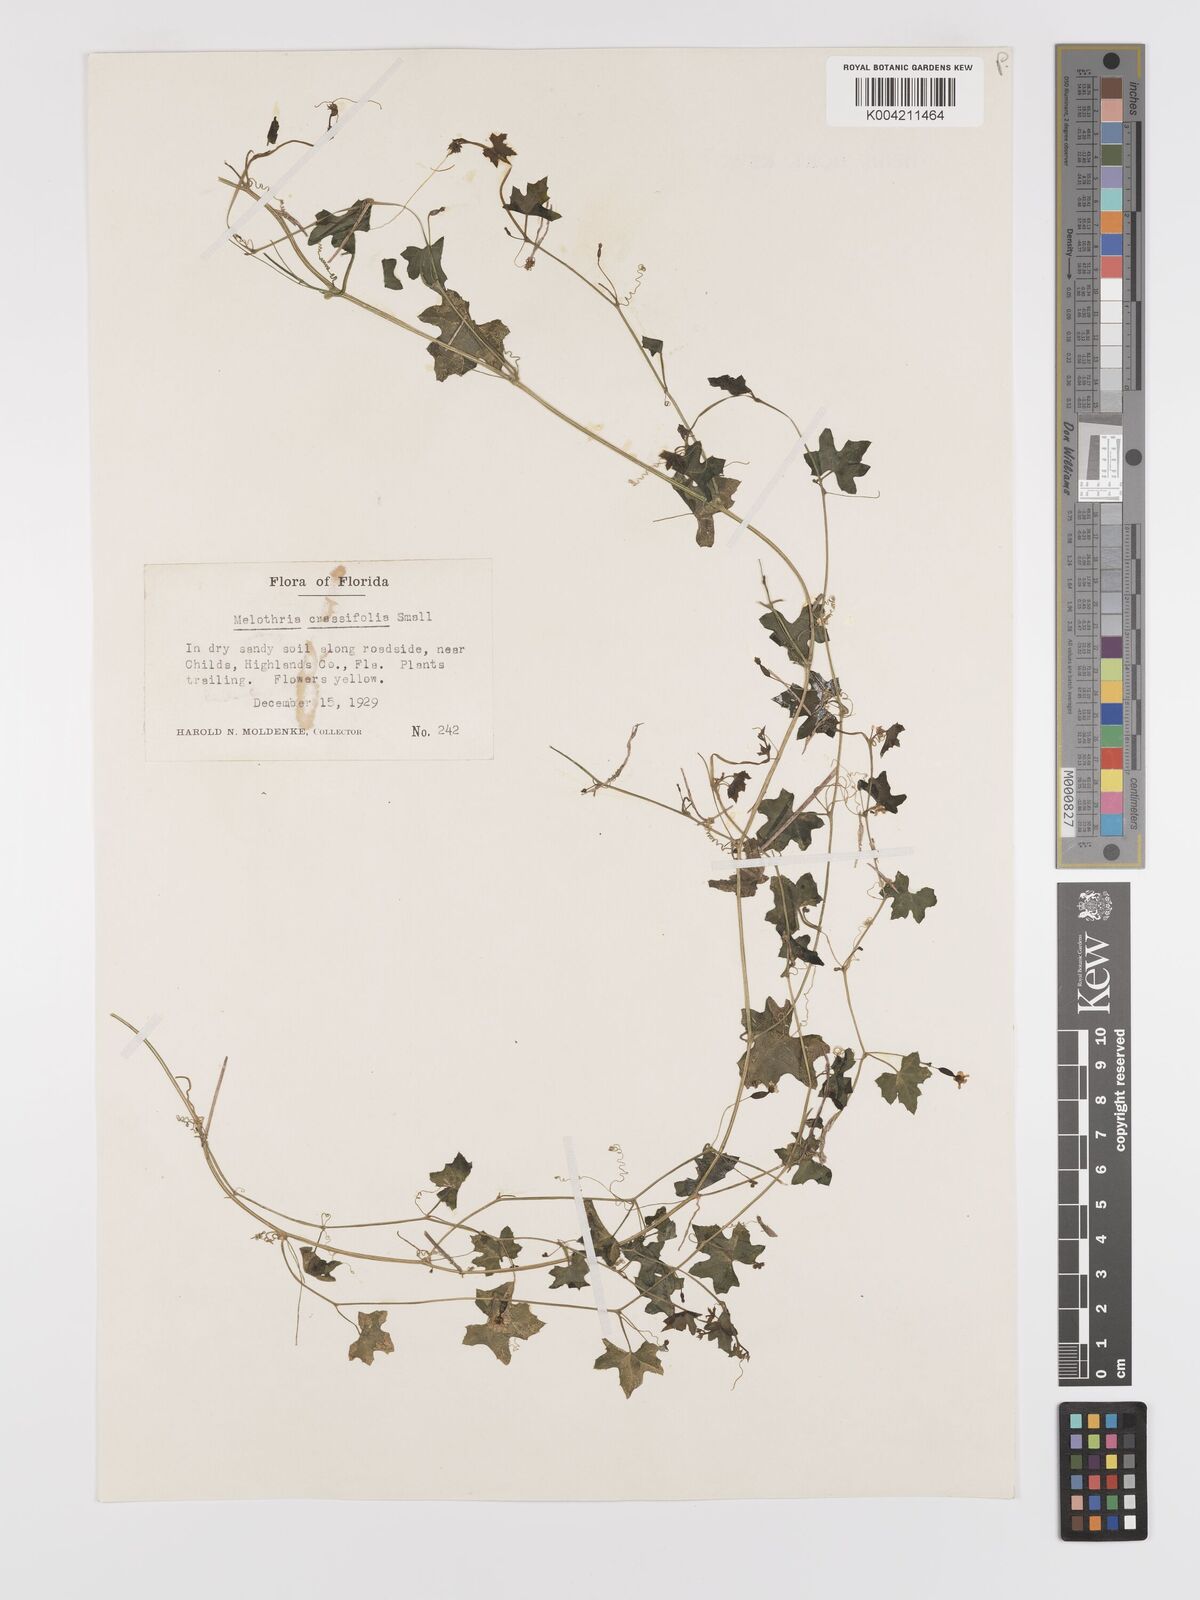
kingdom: Plantae
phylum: Tracheophyta
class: Magnoliopsida
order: Cucurbitales
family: Cucurbitaceae
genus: Melothria
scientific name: Melothria pendula
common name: Creeping-cucumber
